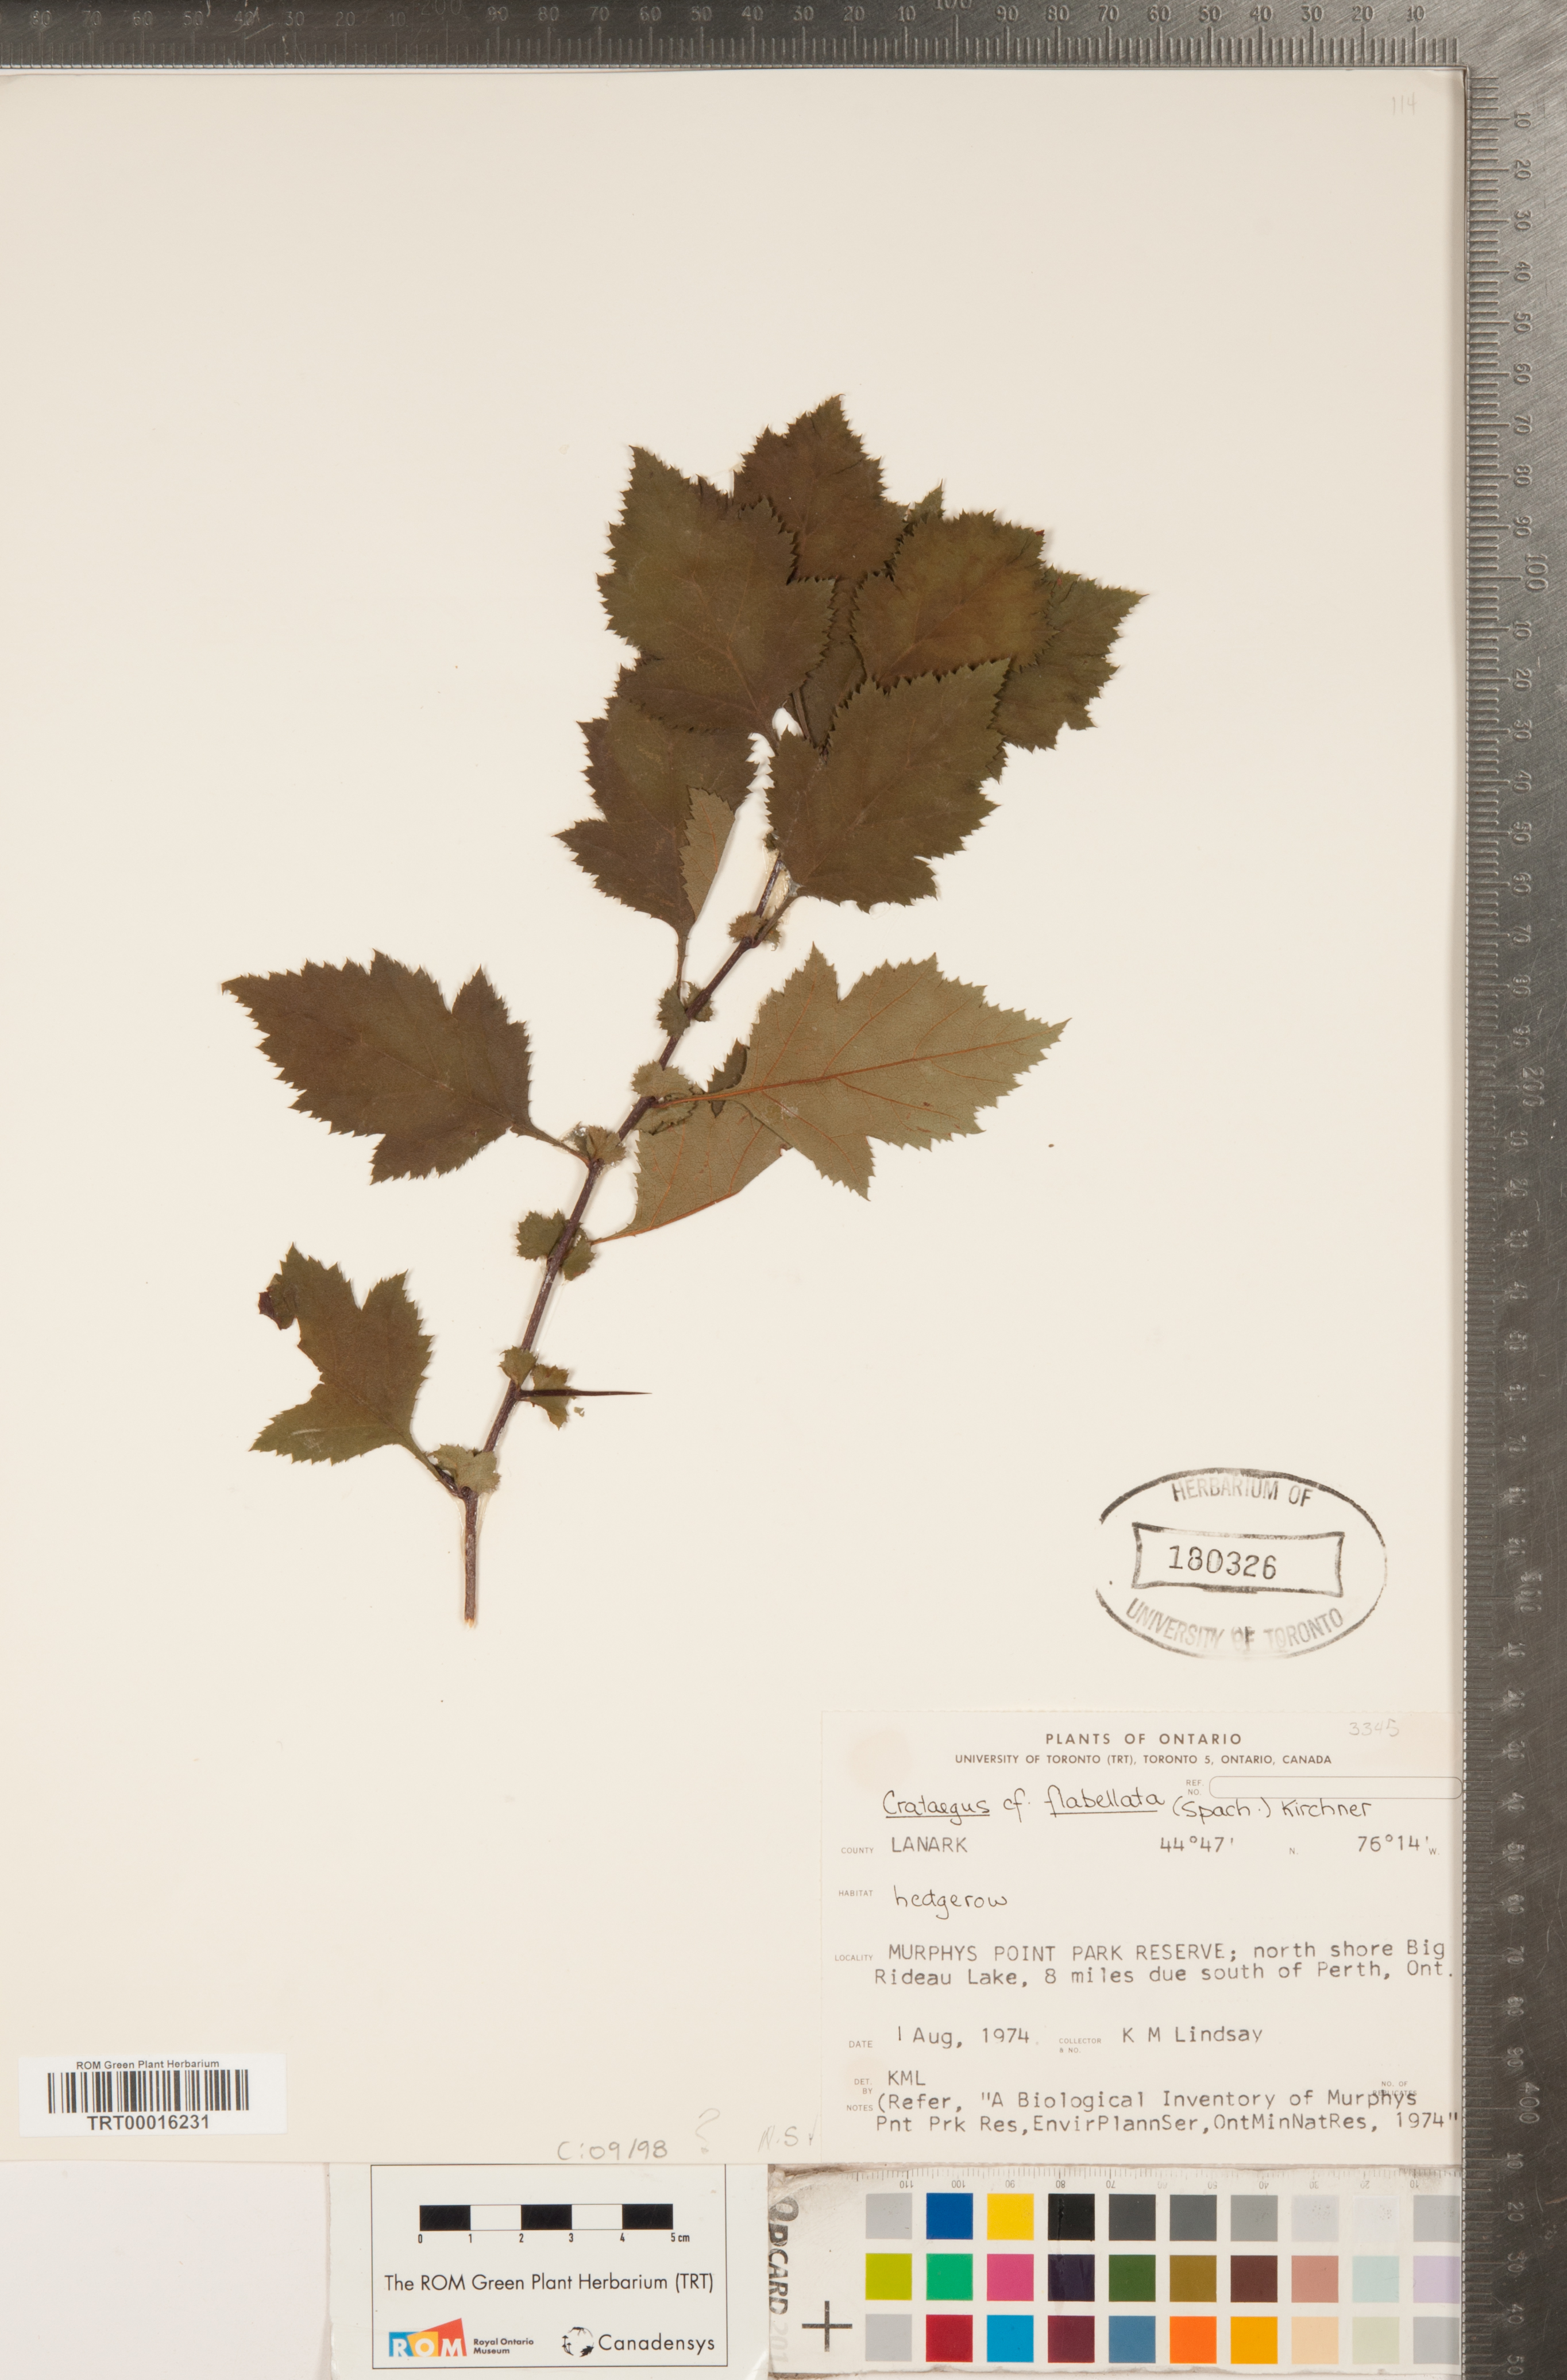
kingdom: Plantae
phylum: Tracheophyta
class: Magnoliopsida
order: Rosales
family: Rosaceae
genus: Crataegus
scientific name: Crataegus flabellata
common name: Bosc's hawthorn
